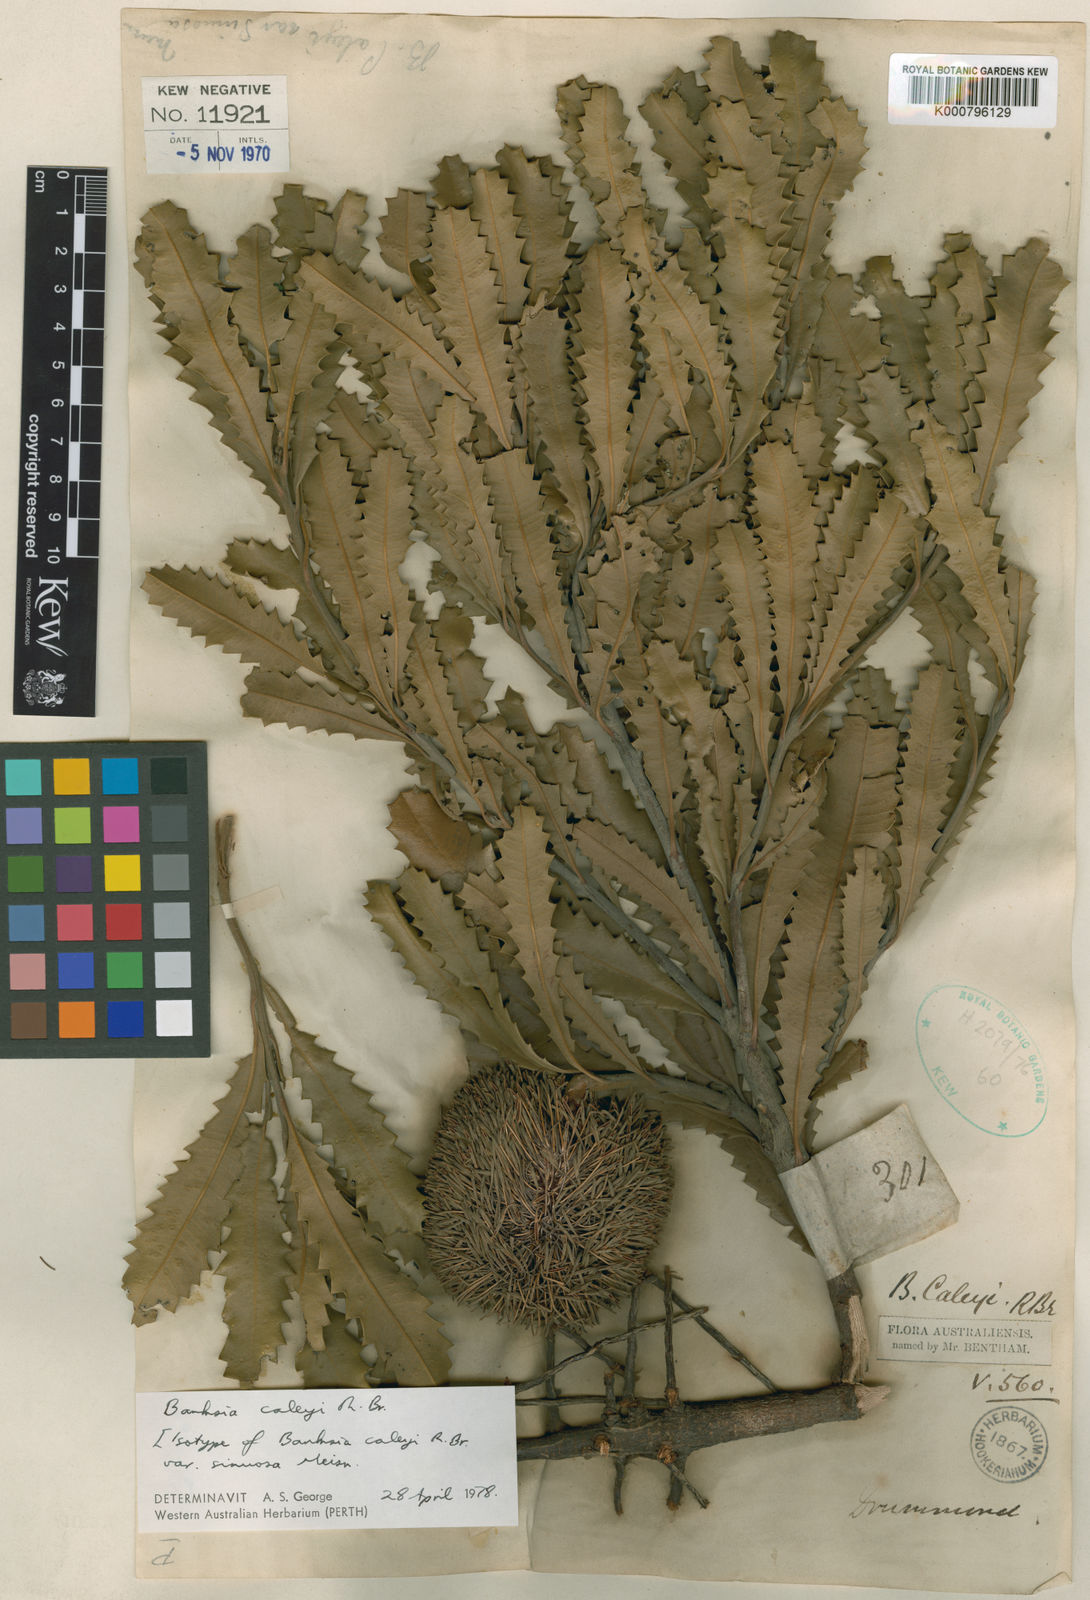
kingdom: Plantae
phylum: Tracheophyta
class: Magnoliopsida
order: Proteales
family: Proteaceae
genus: Banksia
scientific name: Banksia caleyi
